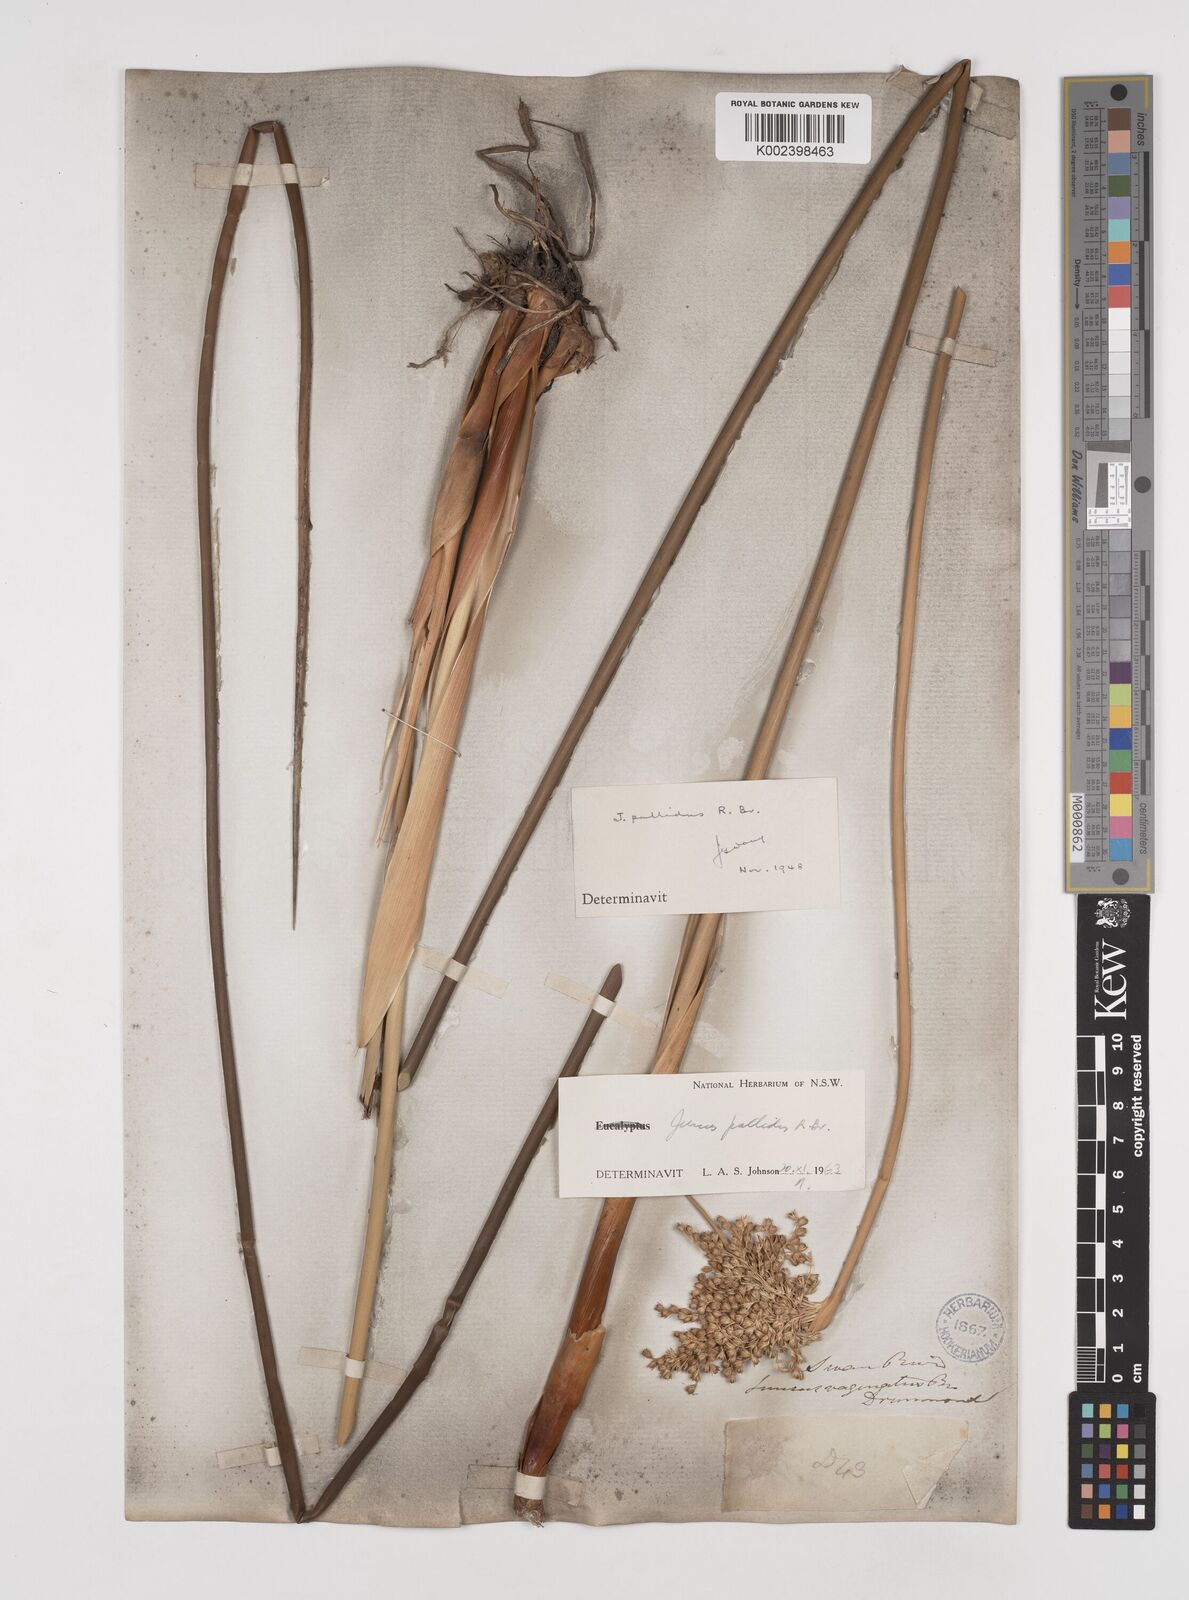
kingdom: Plantae
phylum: Tracheophyta
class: Liliopsida
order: Poales
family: Juncaceae
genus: Juncus
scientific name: Juncus pallidus
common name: Great soft-rush
